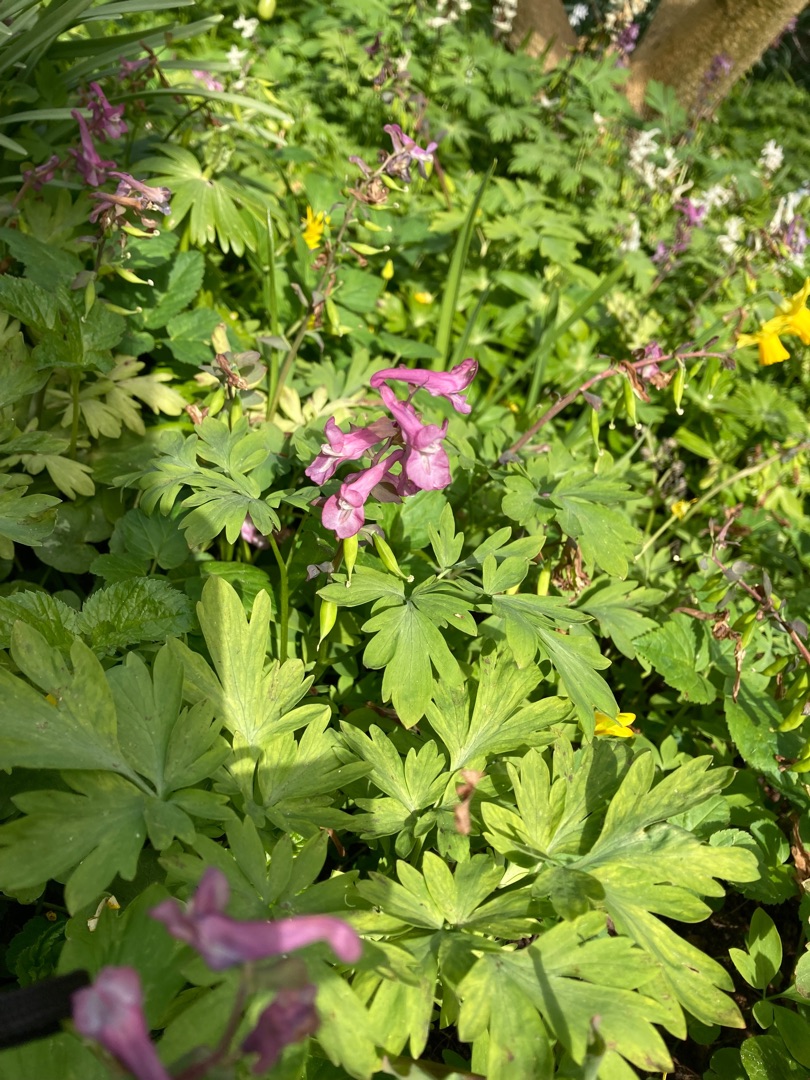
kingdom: Plantae
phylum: Tracheophyta
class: Magnoliopsida
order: Ranunculales
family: Papaveraceae
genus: Corydalis
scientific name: Corydalis cava
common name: Hulrodet lærkespore
